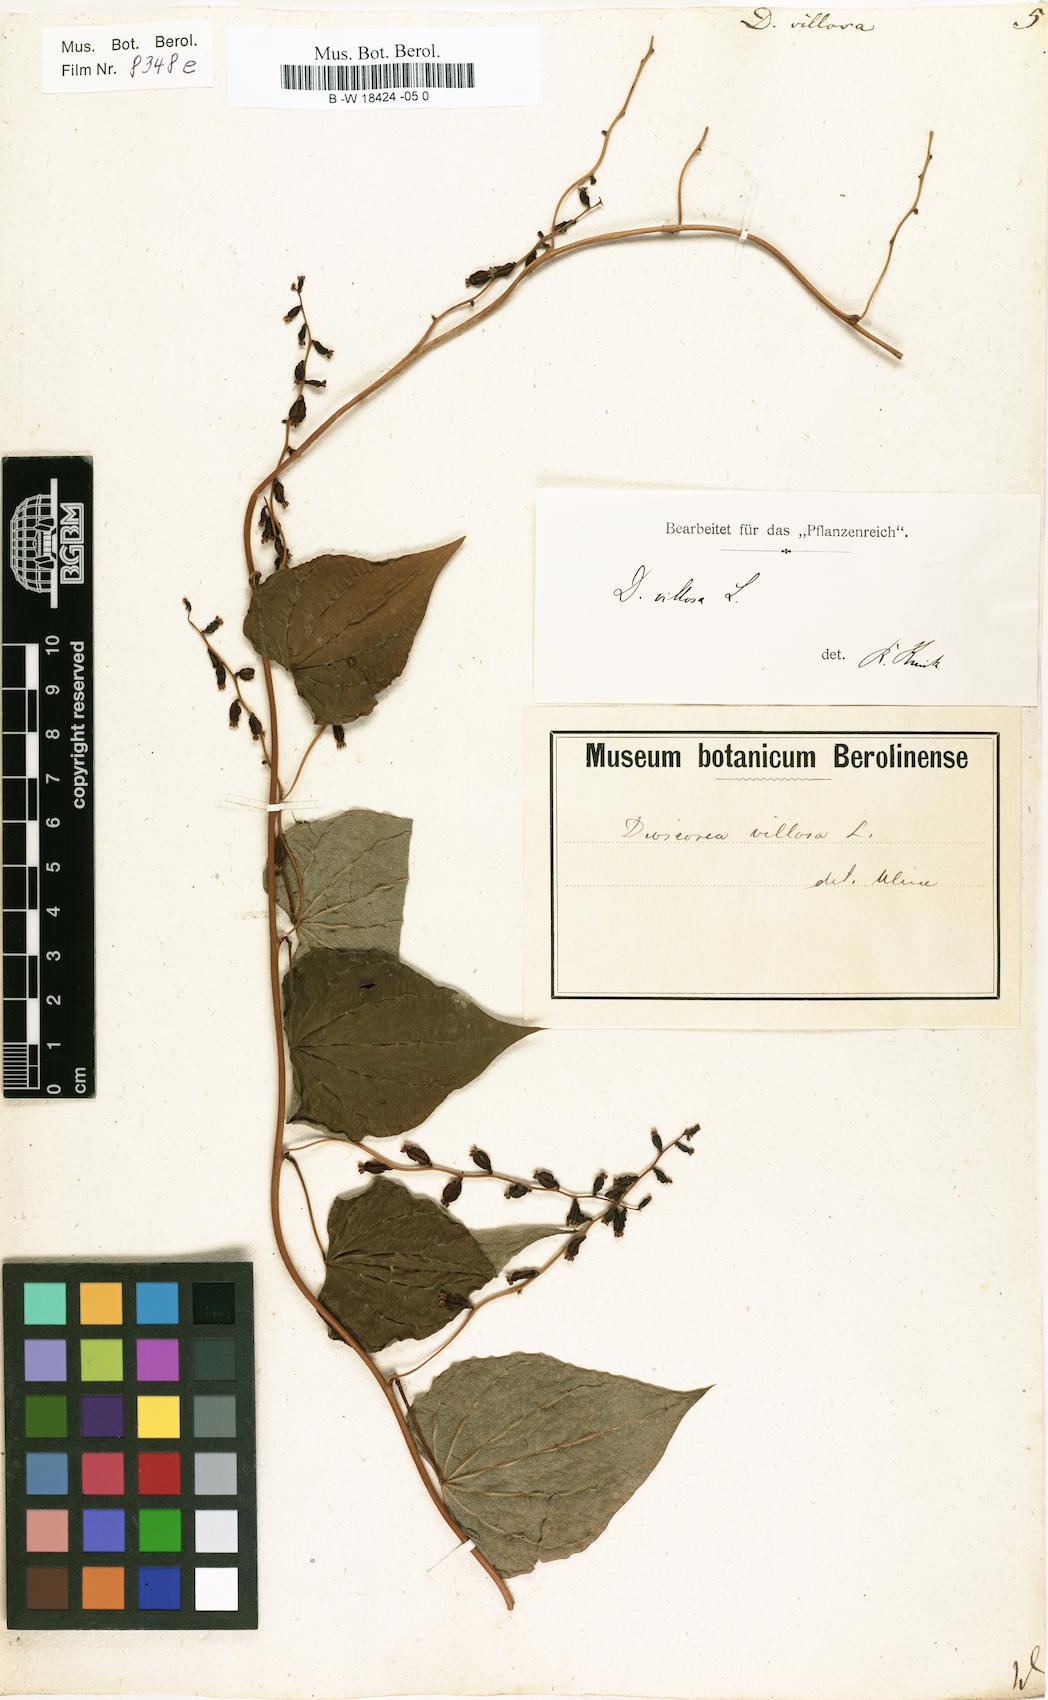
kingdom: Plantae
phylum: Tracheophyta
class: Liliopsida
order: Dioscoreales
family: Dioscoreaceae
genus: Dioscorea
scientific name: Dioscorea villosa
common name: Wild yam
